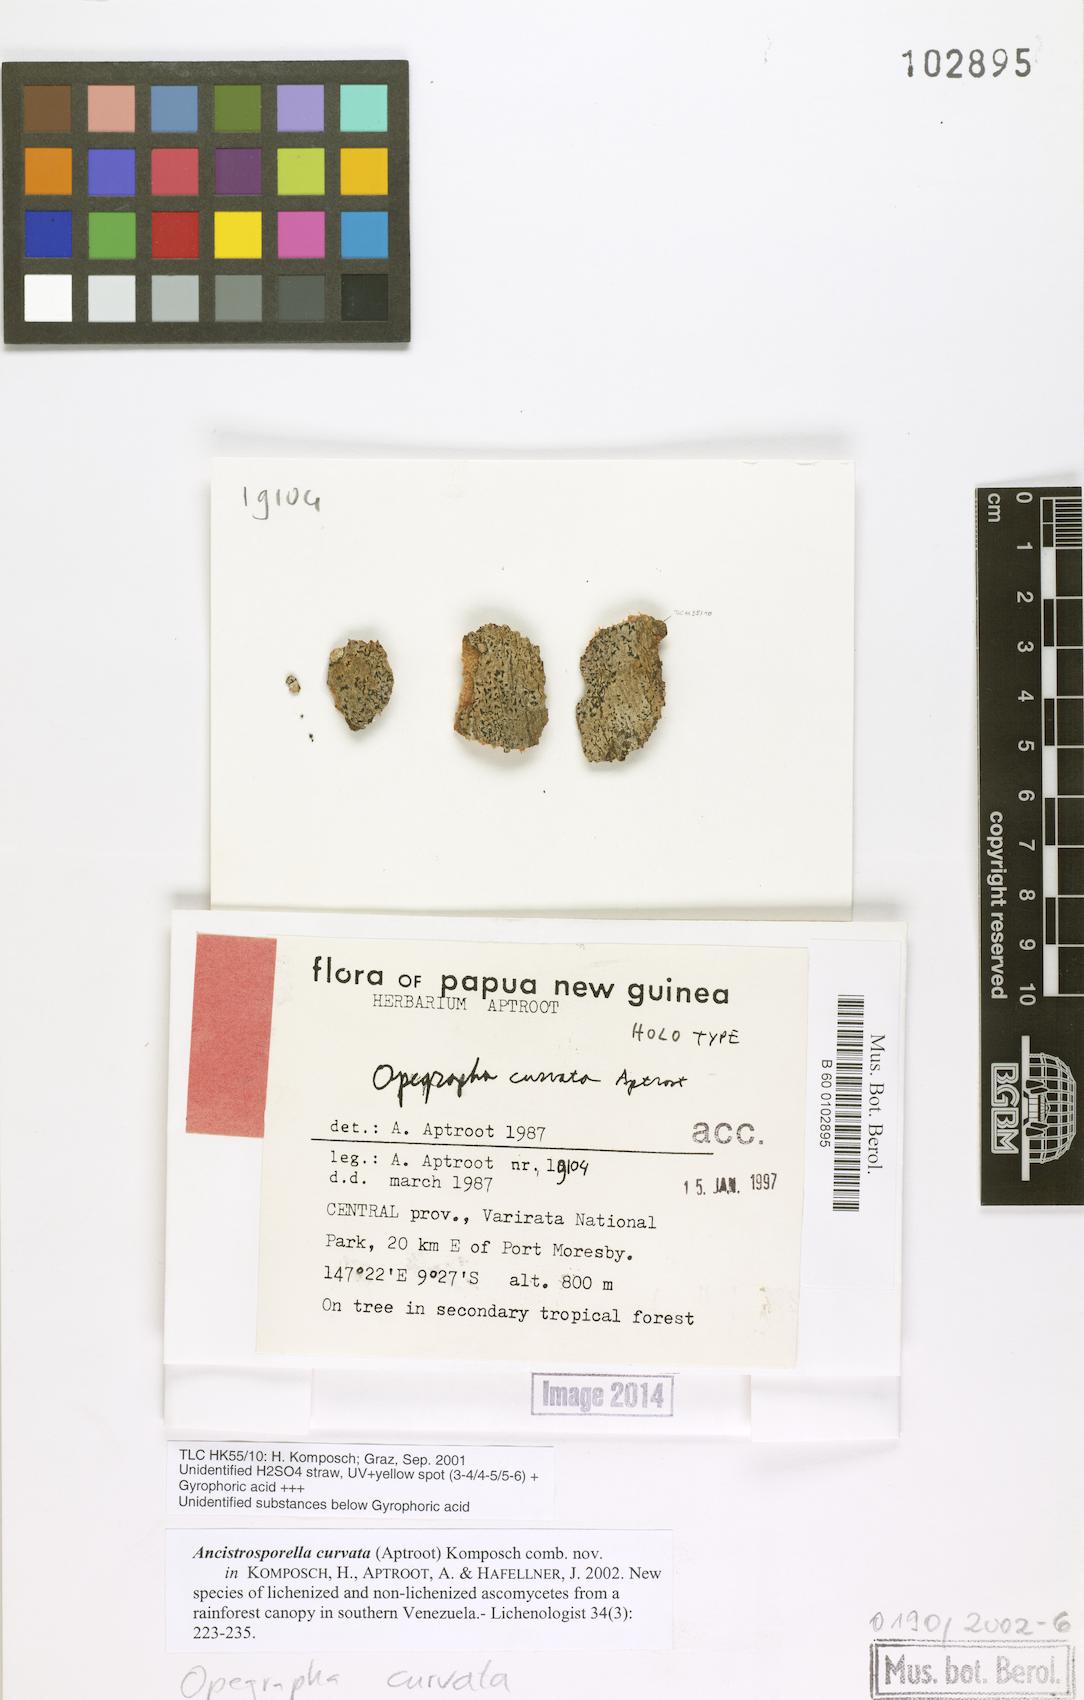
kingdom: Fungi
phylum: Ascomycota
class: Arthoniomycetes
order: Arthoniales
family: Roccellaceae
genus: Ancistrosporella
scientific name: Ancistrosporella curvata
